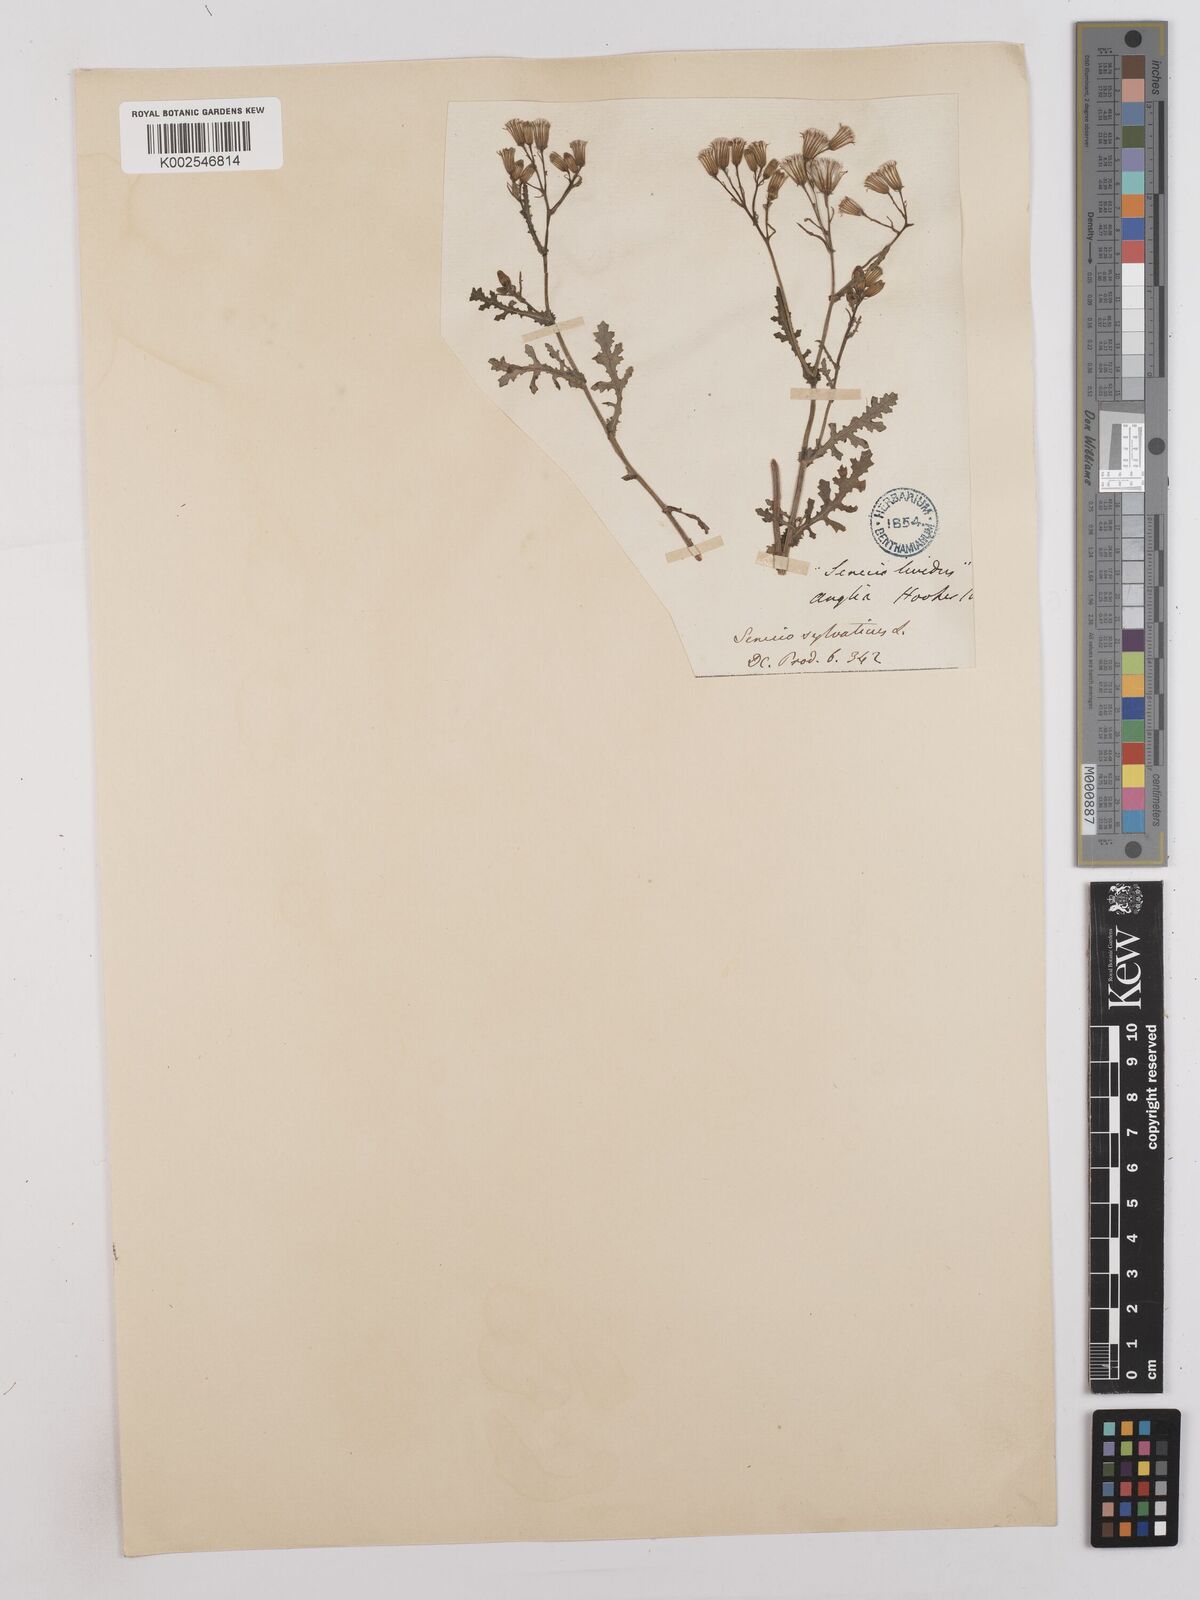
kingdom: Plantae
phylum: Tracheophyta
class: Magnoliopsida
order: Asterales
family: Asteraceae
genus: Senecio
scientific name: Senecio sylvaticus
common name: Woodland ragwort
